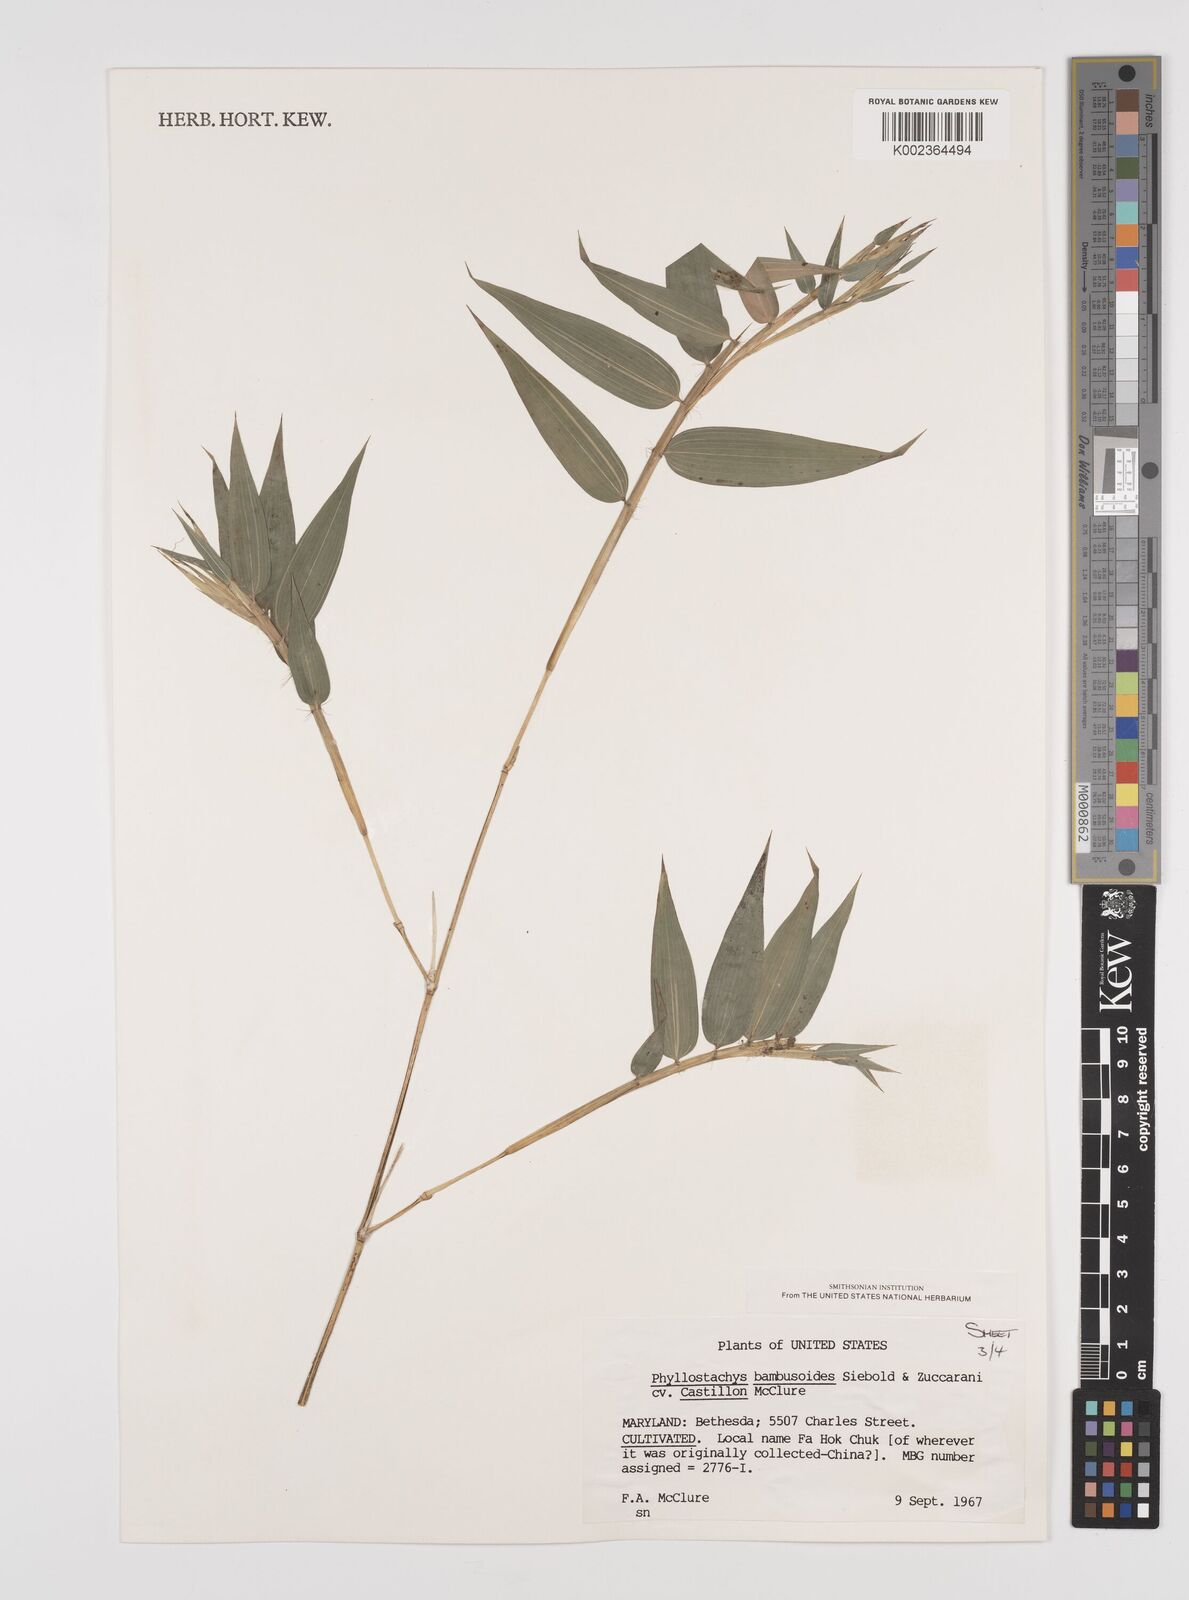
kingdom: Plantae
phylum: Tracheophyta
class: Liliopsida
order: Poales
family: Poaceae
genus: Phyllostachys
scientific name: Phyllostachys reticulata
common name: Bamboo
